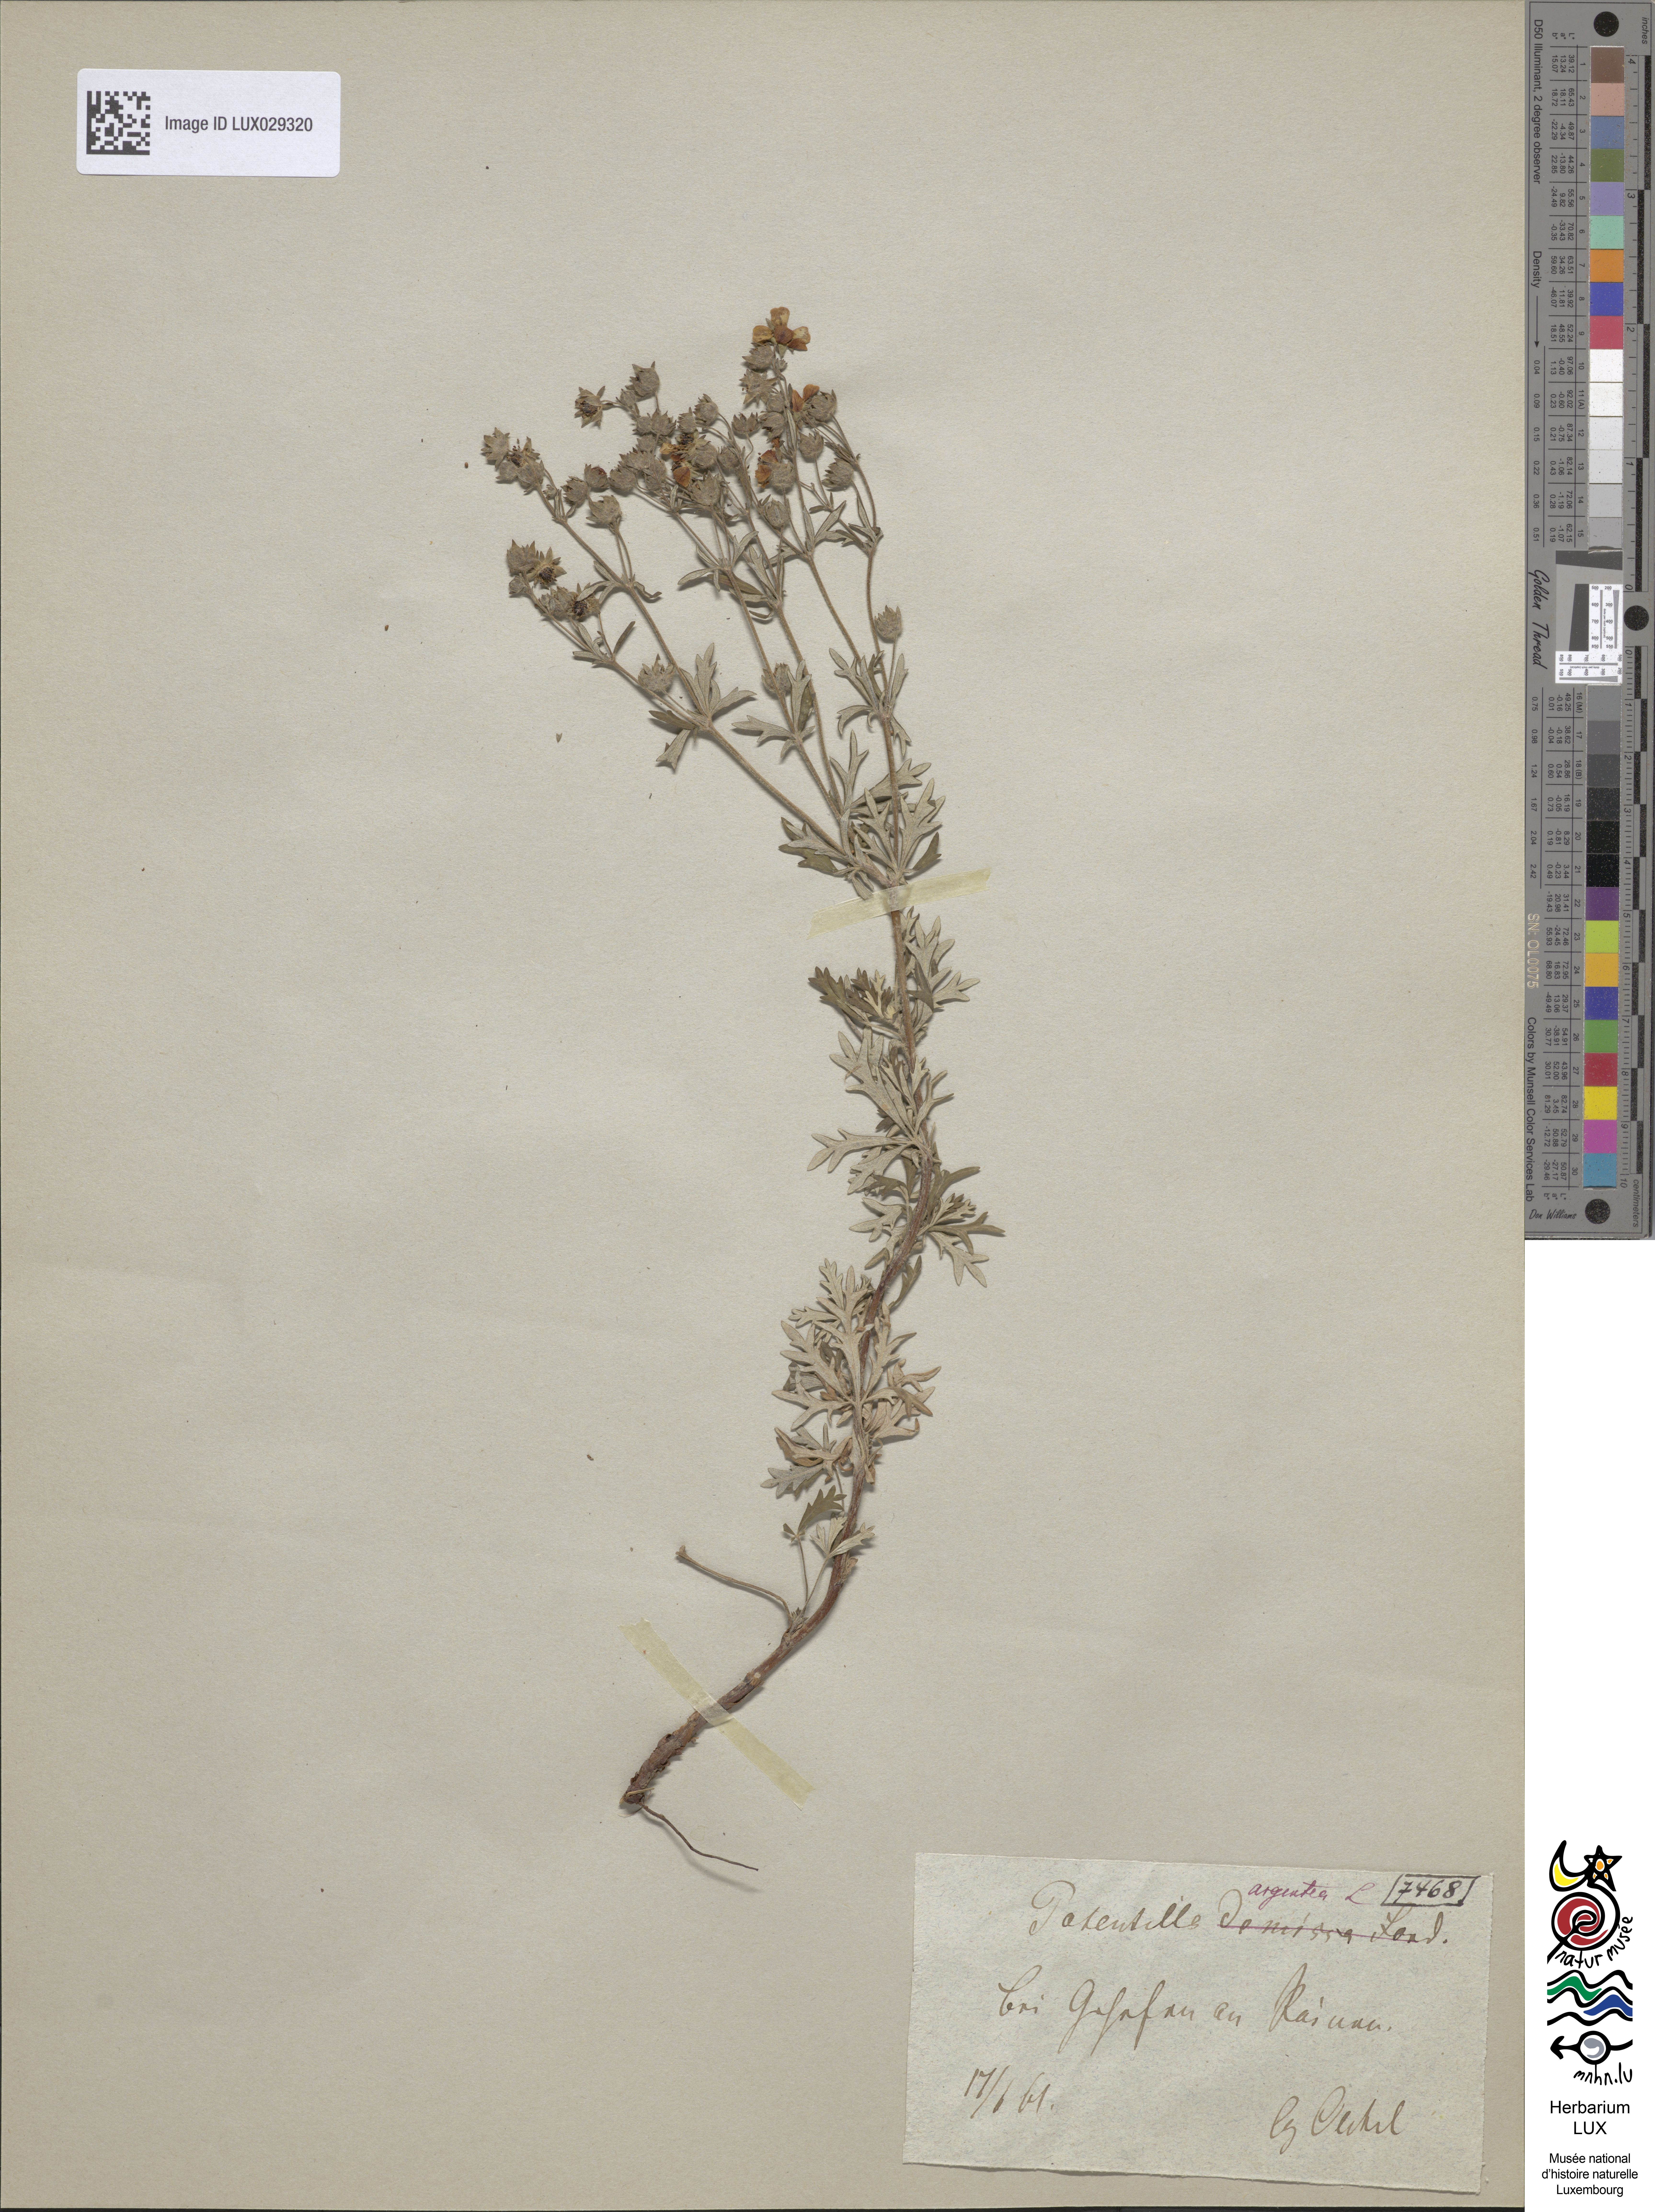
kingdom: Plantae
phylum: Tracheophyta
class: Magnoliopsida
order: Rosales
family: Rosaceae
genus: Potentilla
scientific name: Potentilla argentea
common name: Hoary cinquefoil
